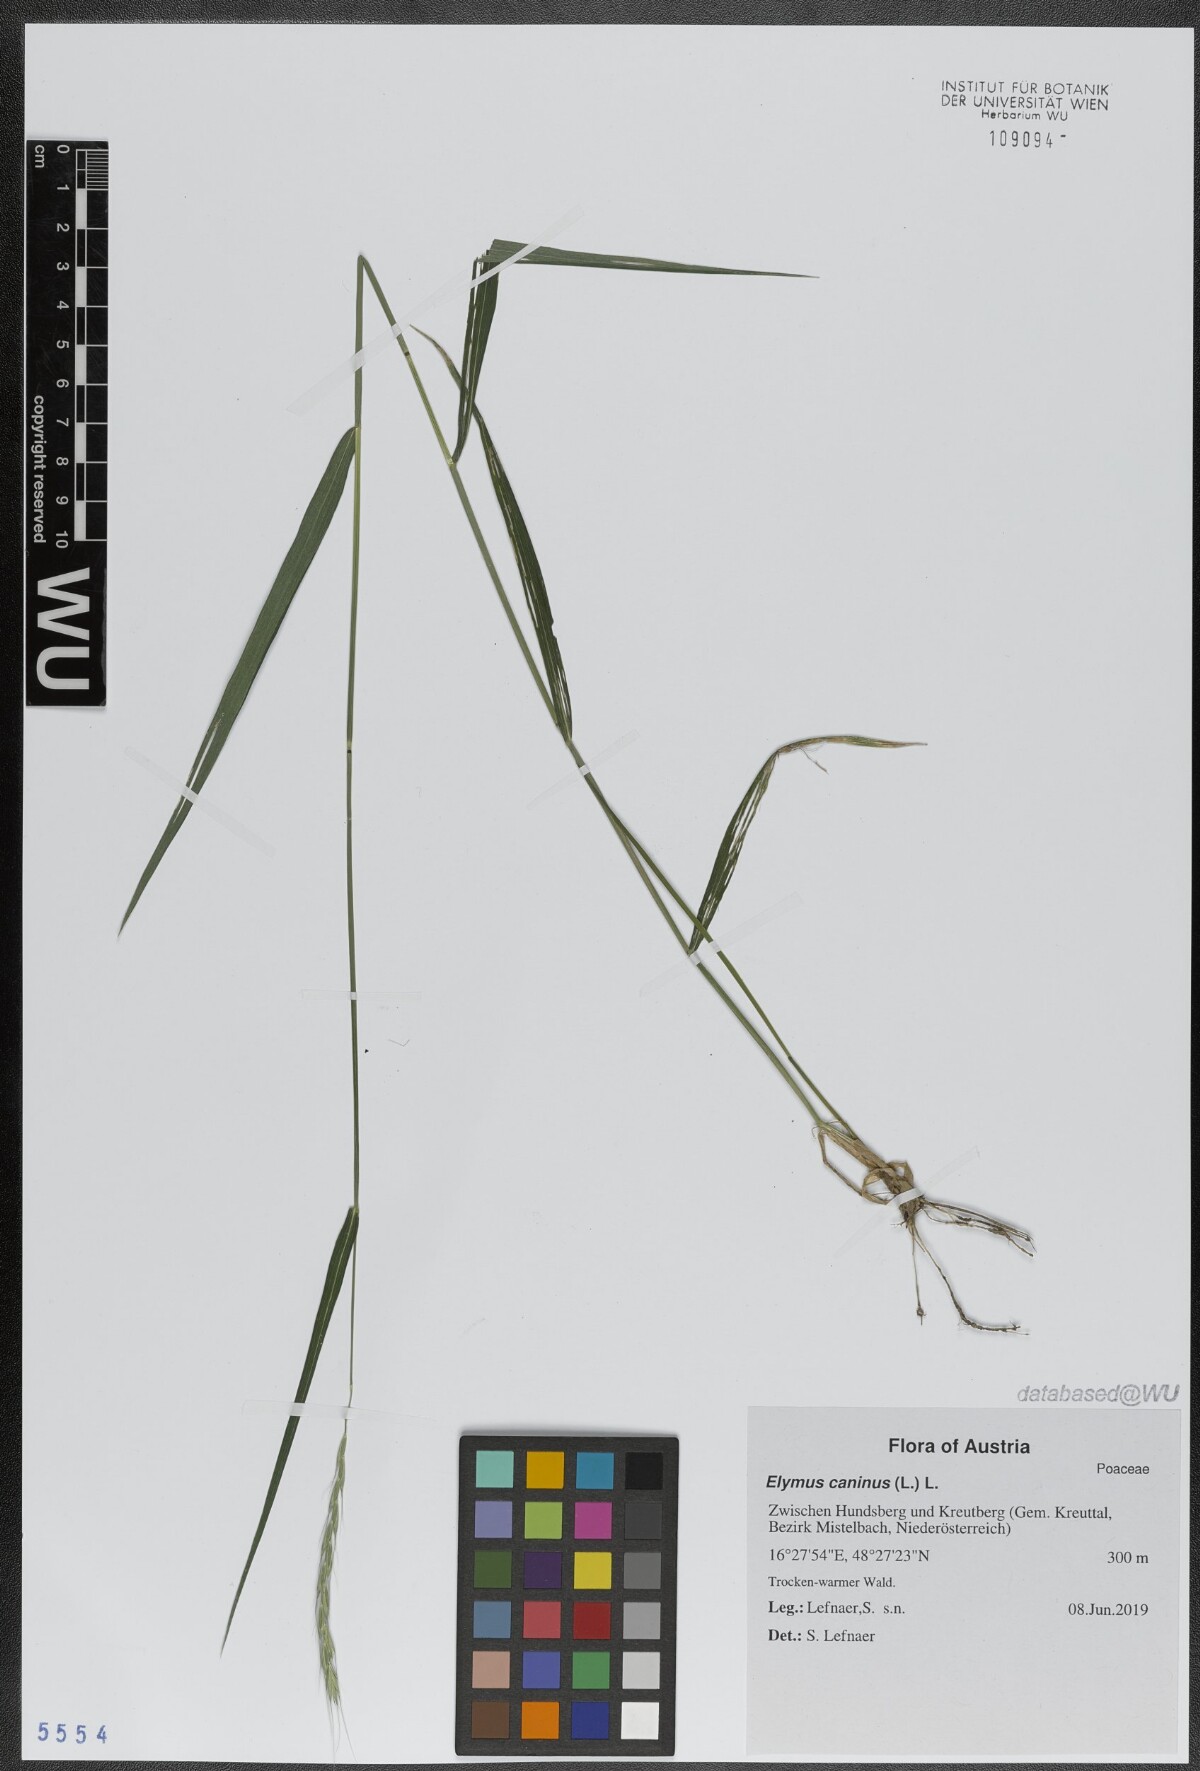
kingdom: Plantae
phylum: Tracheophyta
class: Liliopsida
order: Poales
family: Poaceae
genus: Elymus
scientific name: Elymus caninus
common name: Bearded couch
